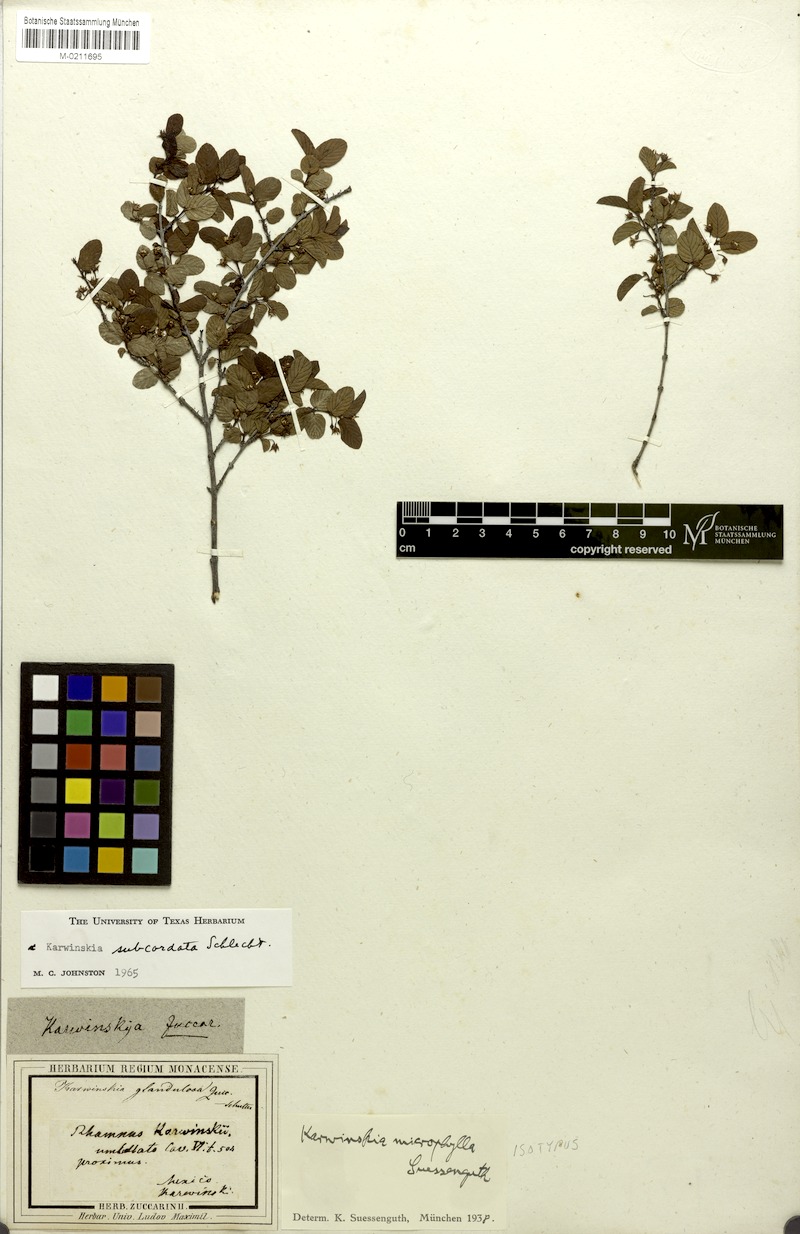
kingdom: Plantae
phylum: Tracheophyta
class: Magnoliopsida
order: Rosales
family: Rhamnaceae
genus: Karwinskia
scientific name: Karwinskia subcordata
